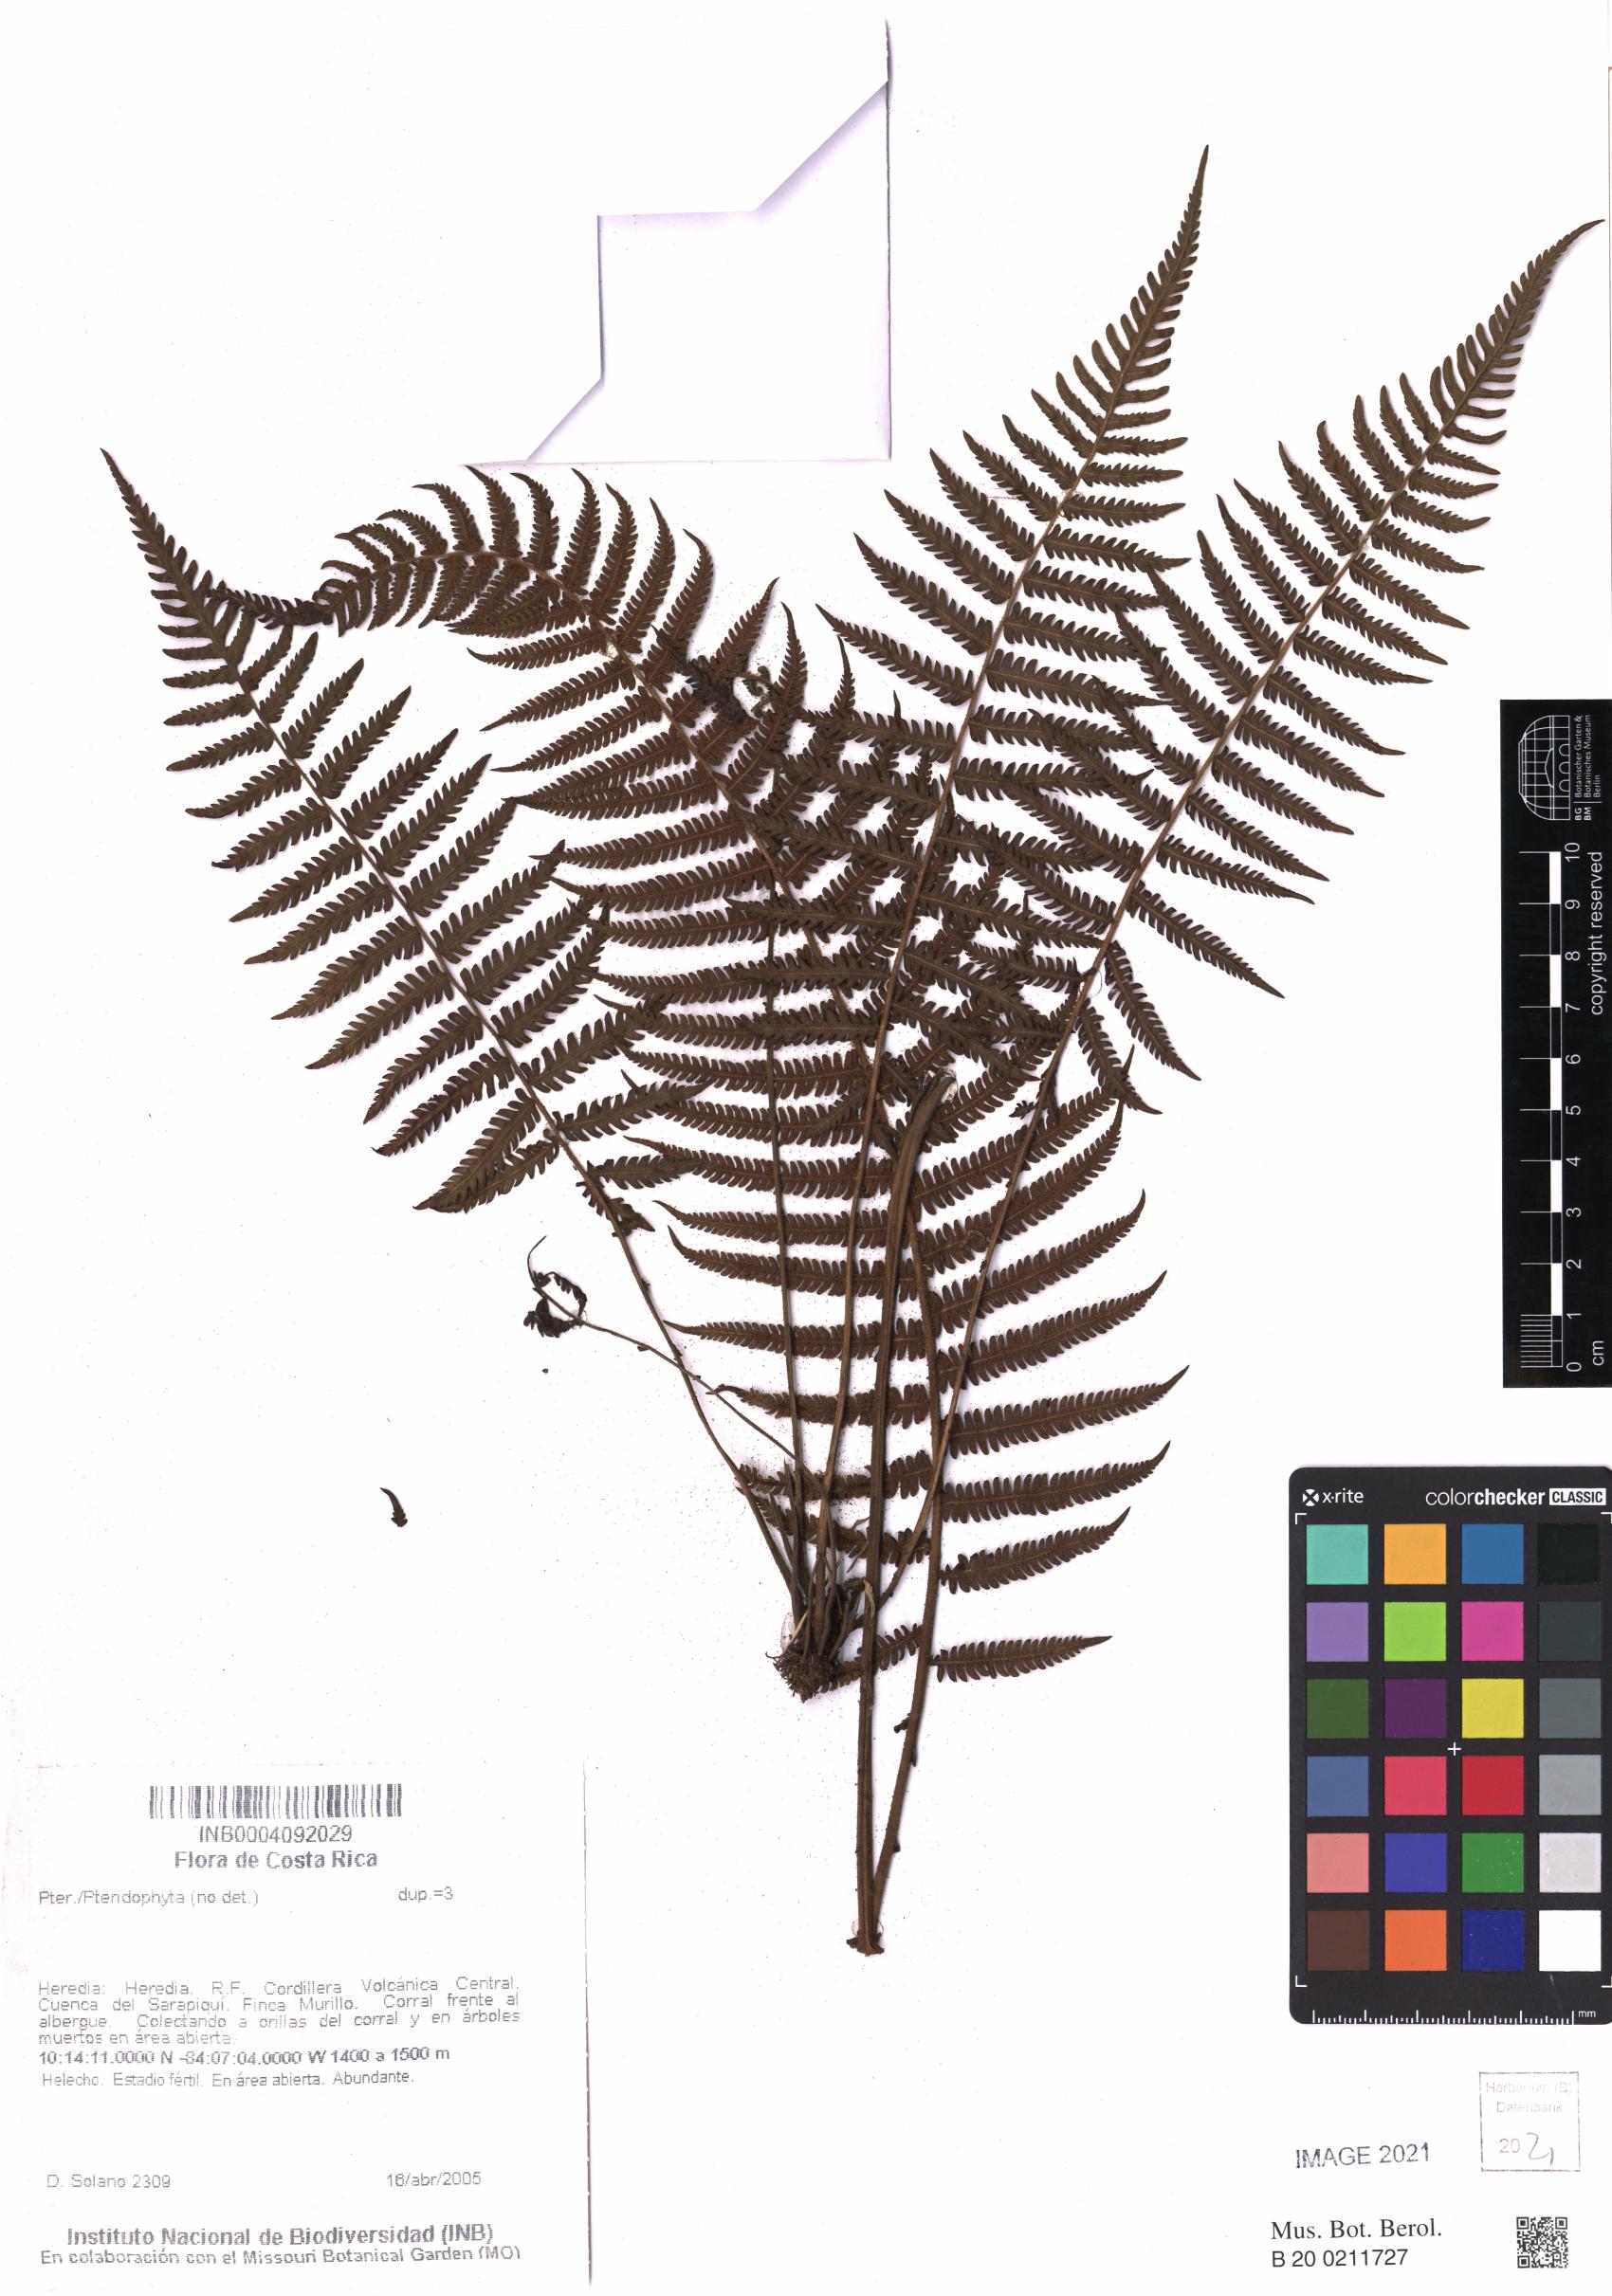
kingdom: Plantae
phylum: Tracheophyta
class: Liliopsida
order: Poales
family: Poaceae
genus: Dichanthelium
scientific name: Dichanthelium viscidellum
